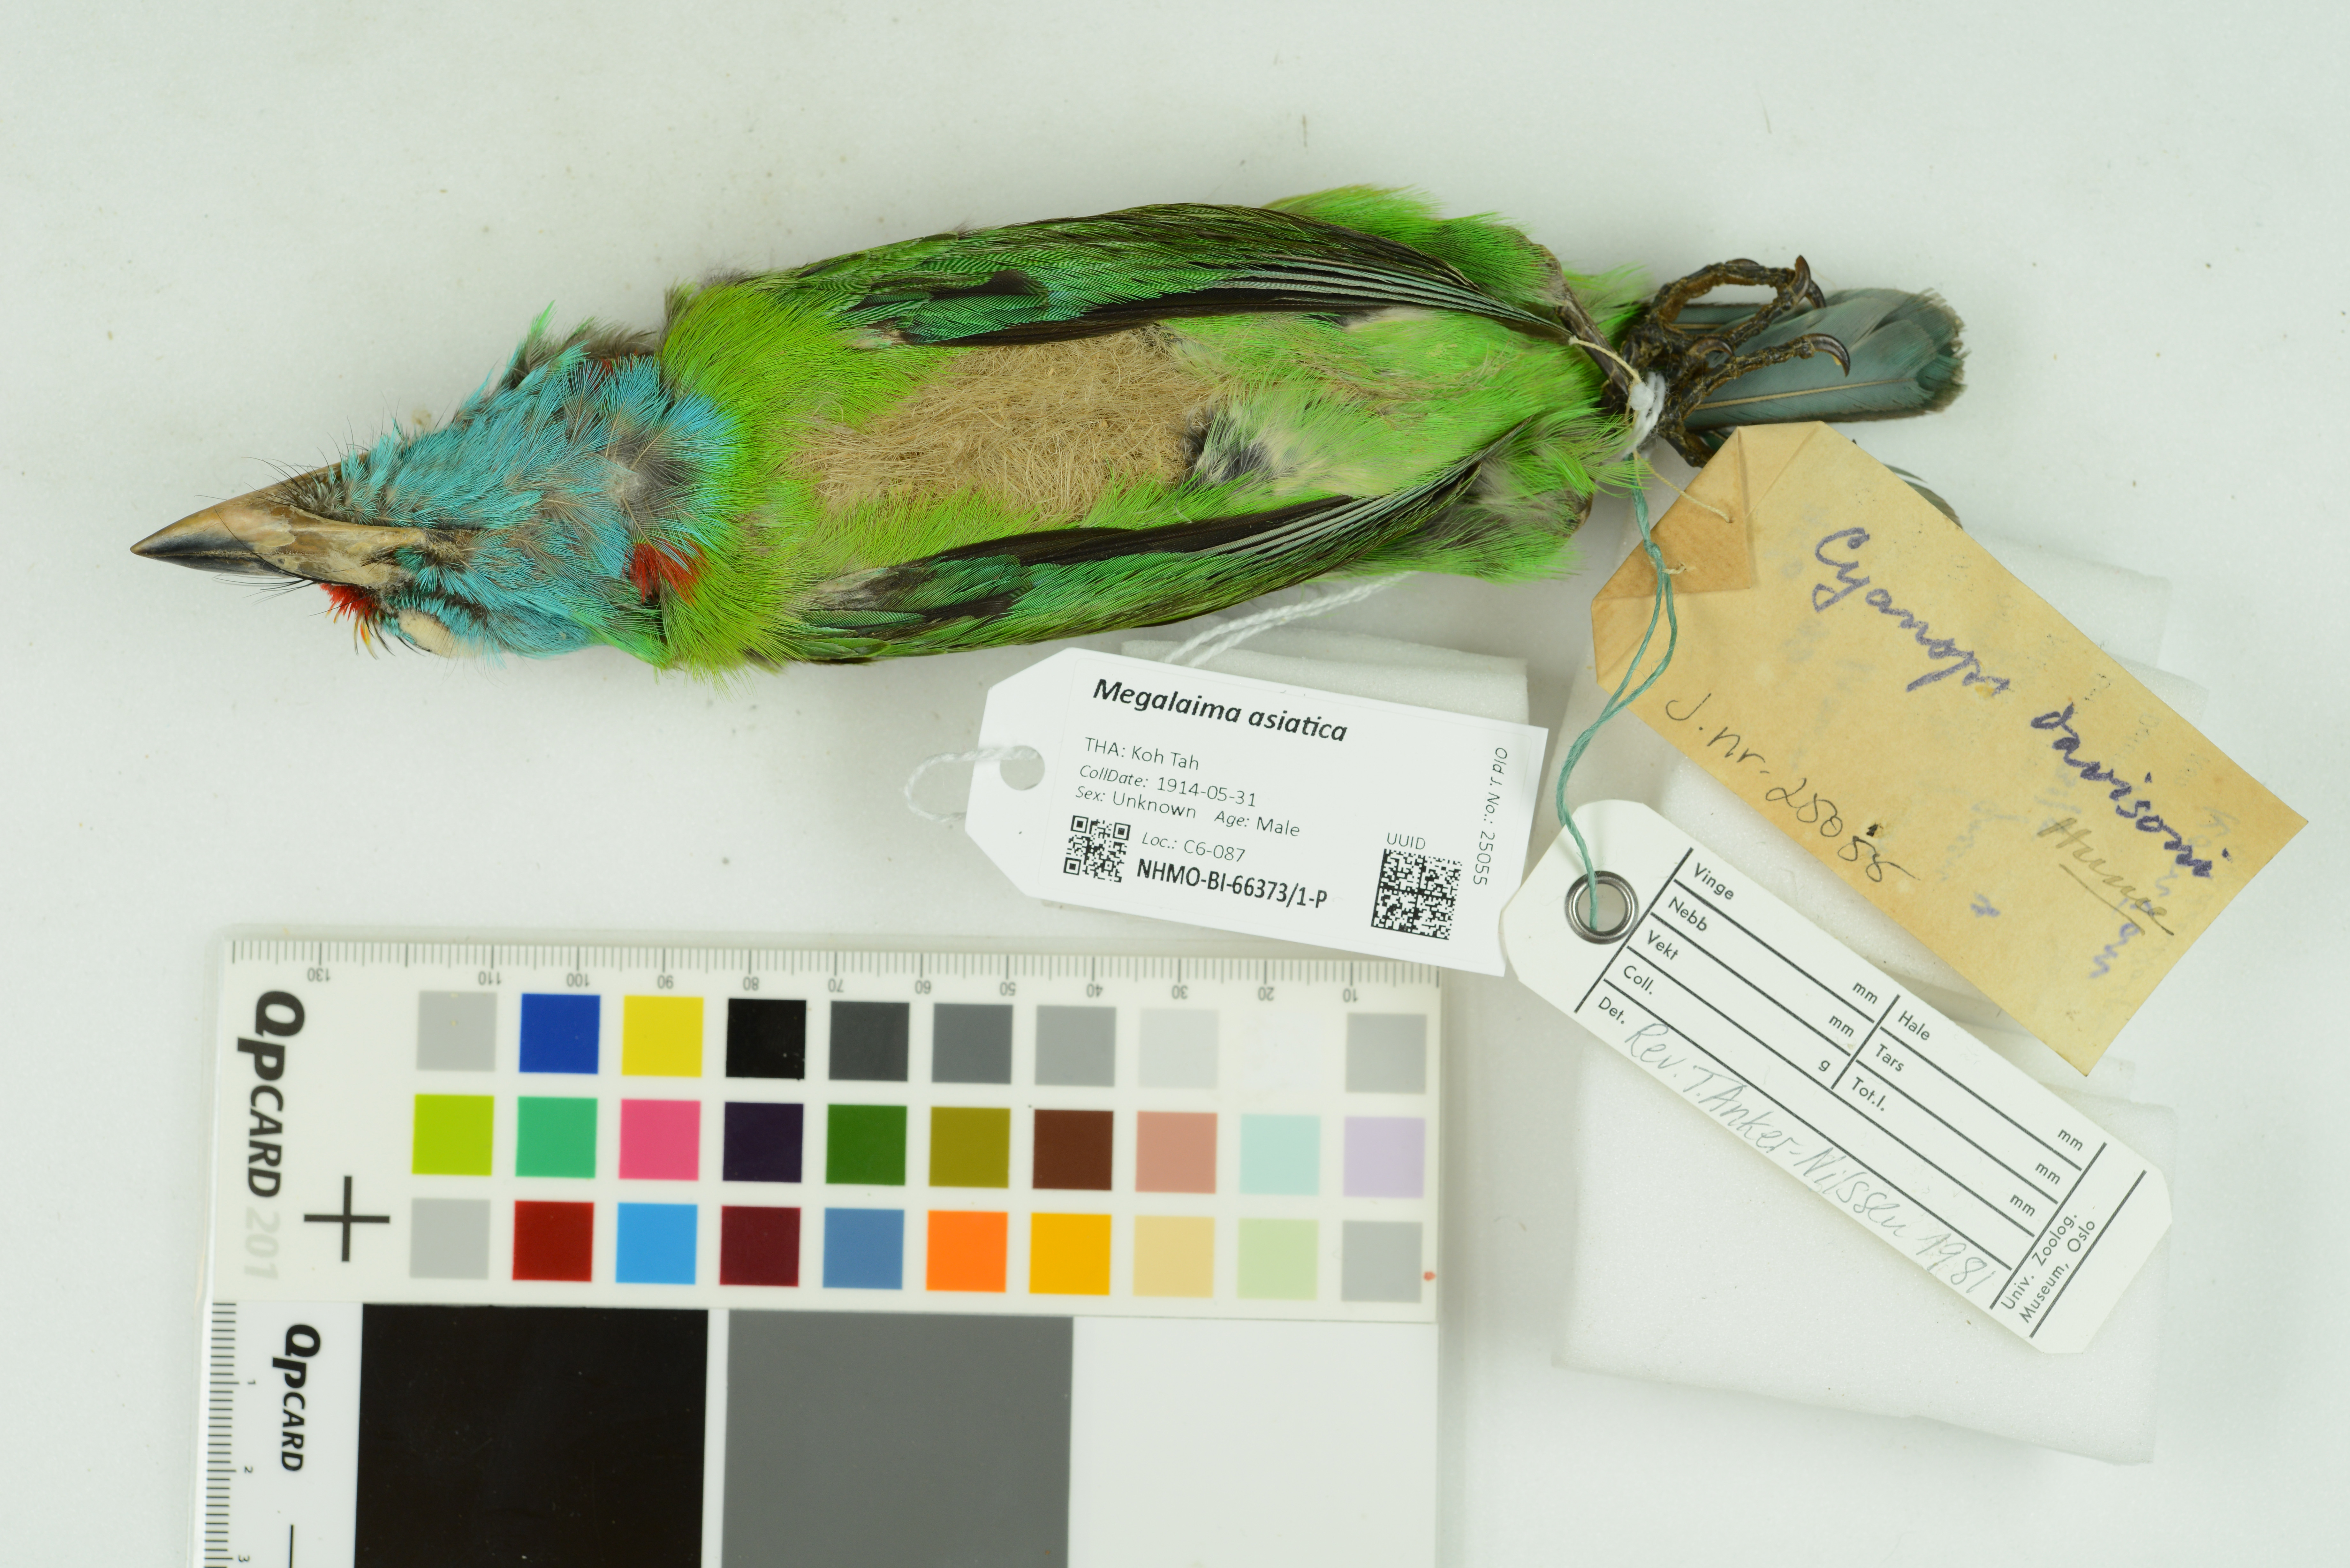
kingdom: Animalia
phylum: Chordata
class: Aves
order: Piciformes
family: Megalaimidae
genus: Psilopogon
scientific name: Psilopogon asiaticus
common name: Blue-throated barbet
